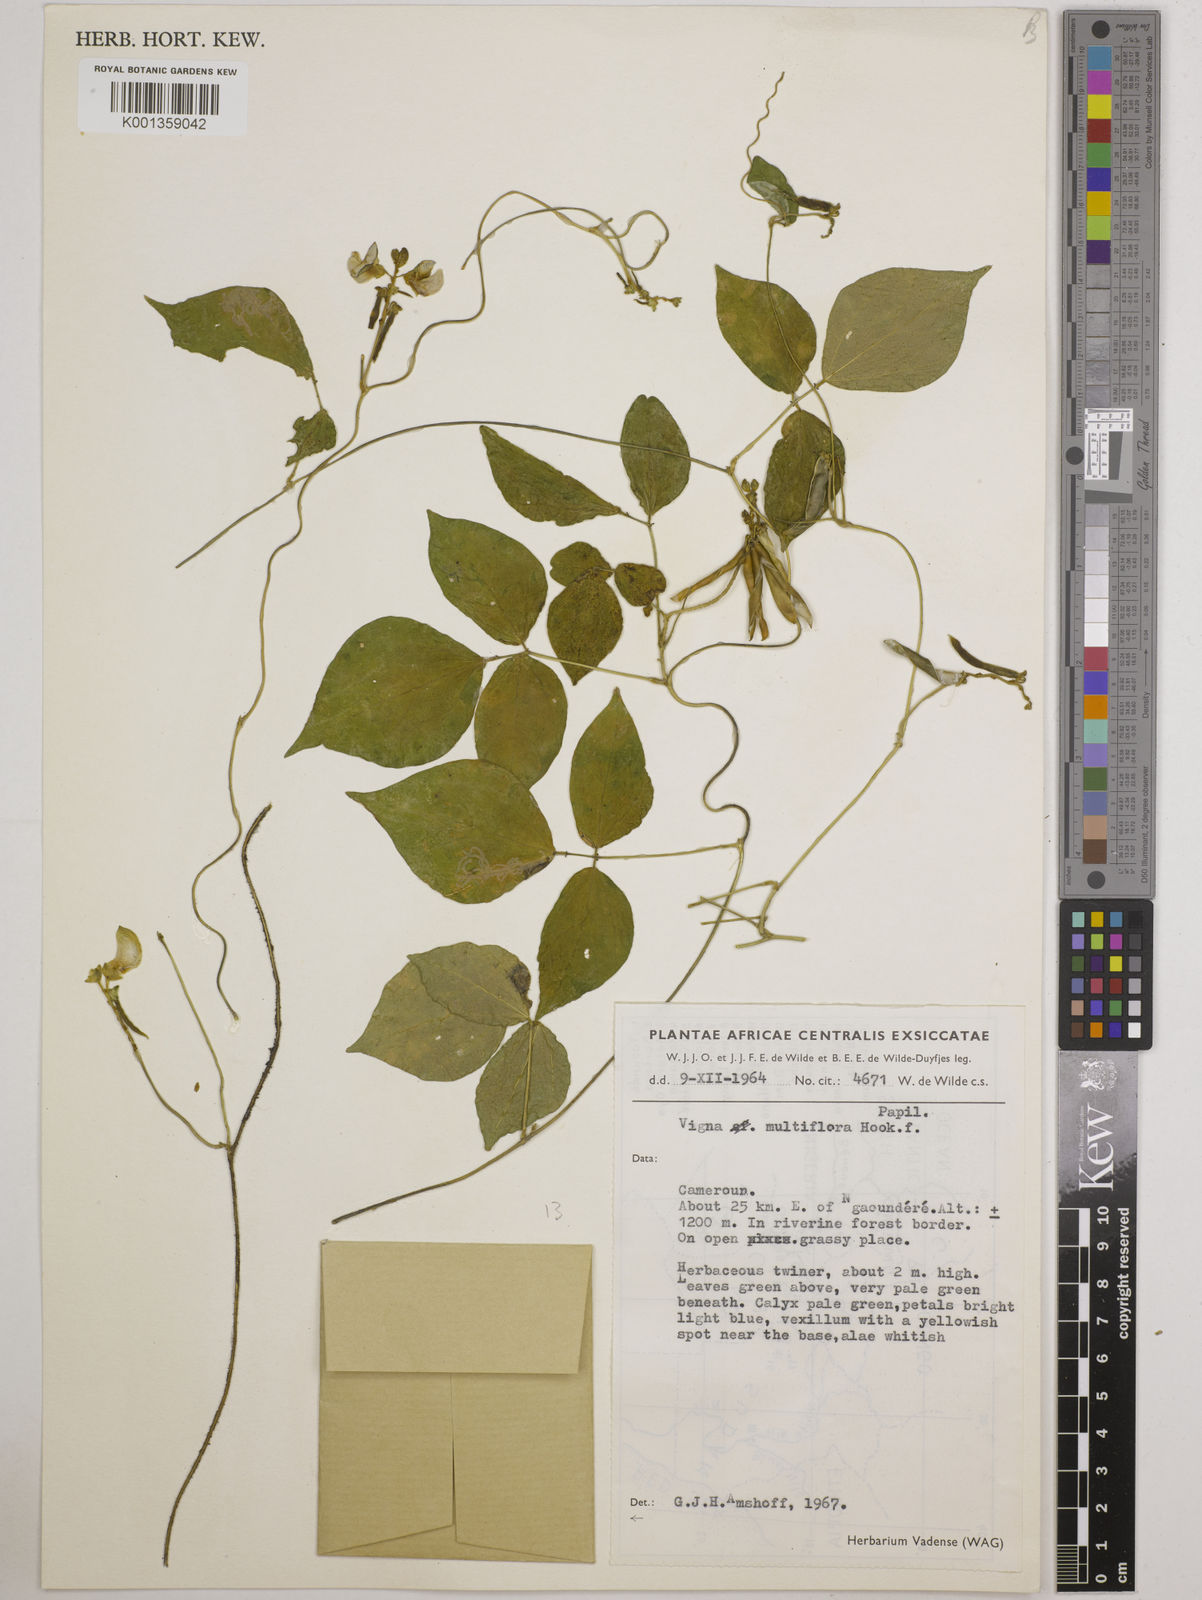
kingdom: Plantae
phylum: Tracheophyta
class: Magnoliopsida
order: Fabales
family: Fabaceae
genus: Vigna
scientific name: Vigna gracilis
